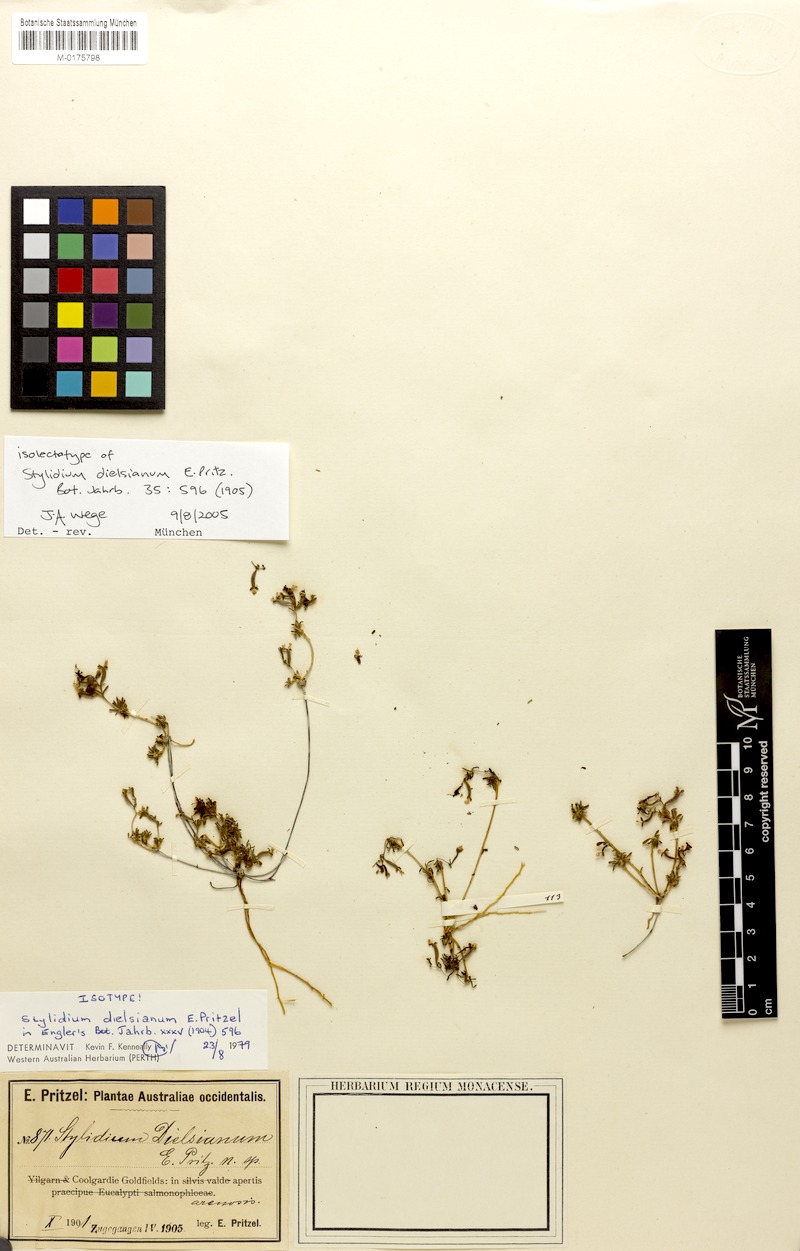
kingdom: Plantae
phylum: Tracheophyta
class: Magnoliopsida
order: Asterales
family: Stylidiaceae
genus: Stylidium
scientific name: Stylidium dielsianum
